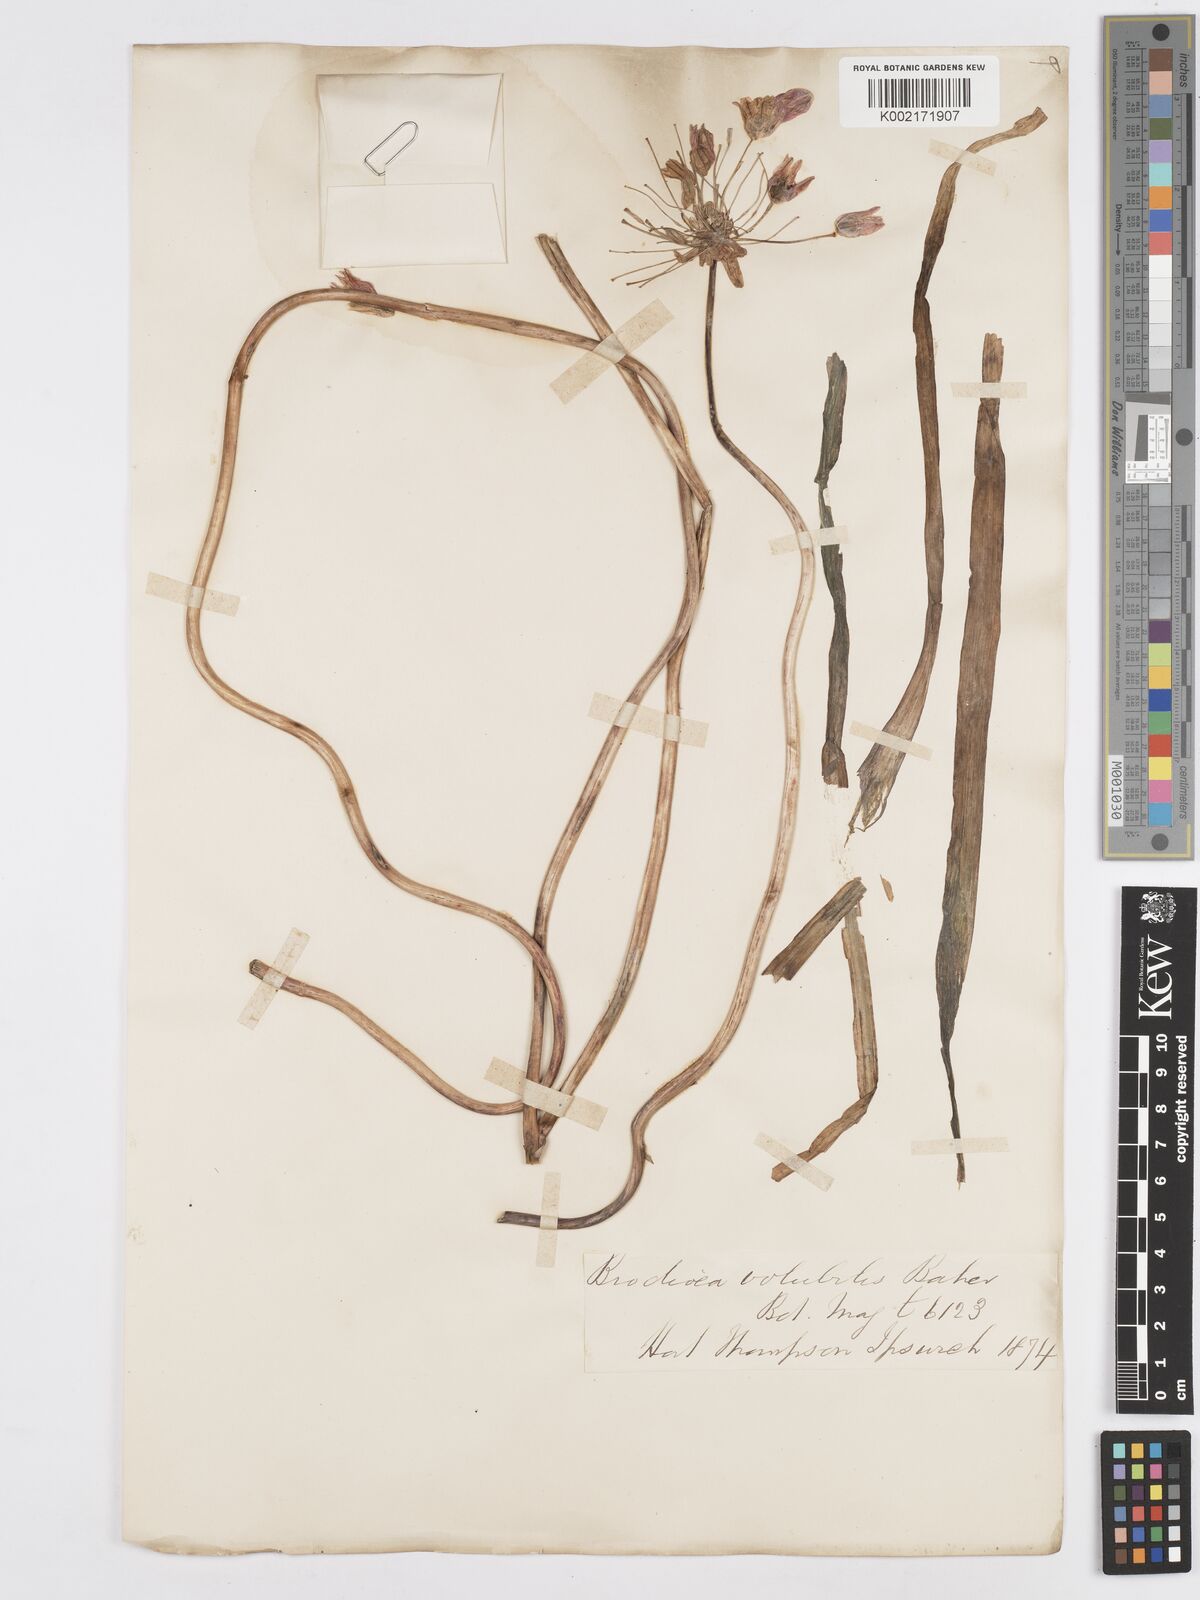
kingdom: Plantae
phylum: Tracheophyta
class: Liliopsida
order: Asparagales
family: Asparagaceae
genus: Dichelostemma
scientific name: Dichelostemma volubile
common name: Trining brodiaea
